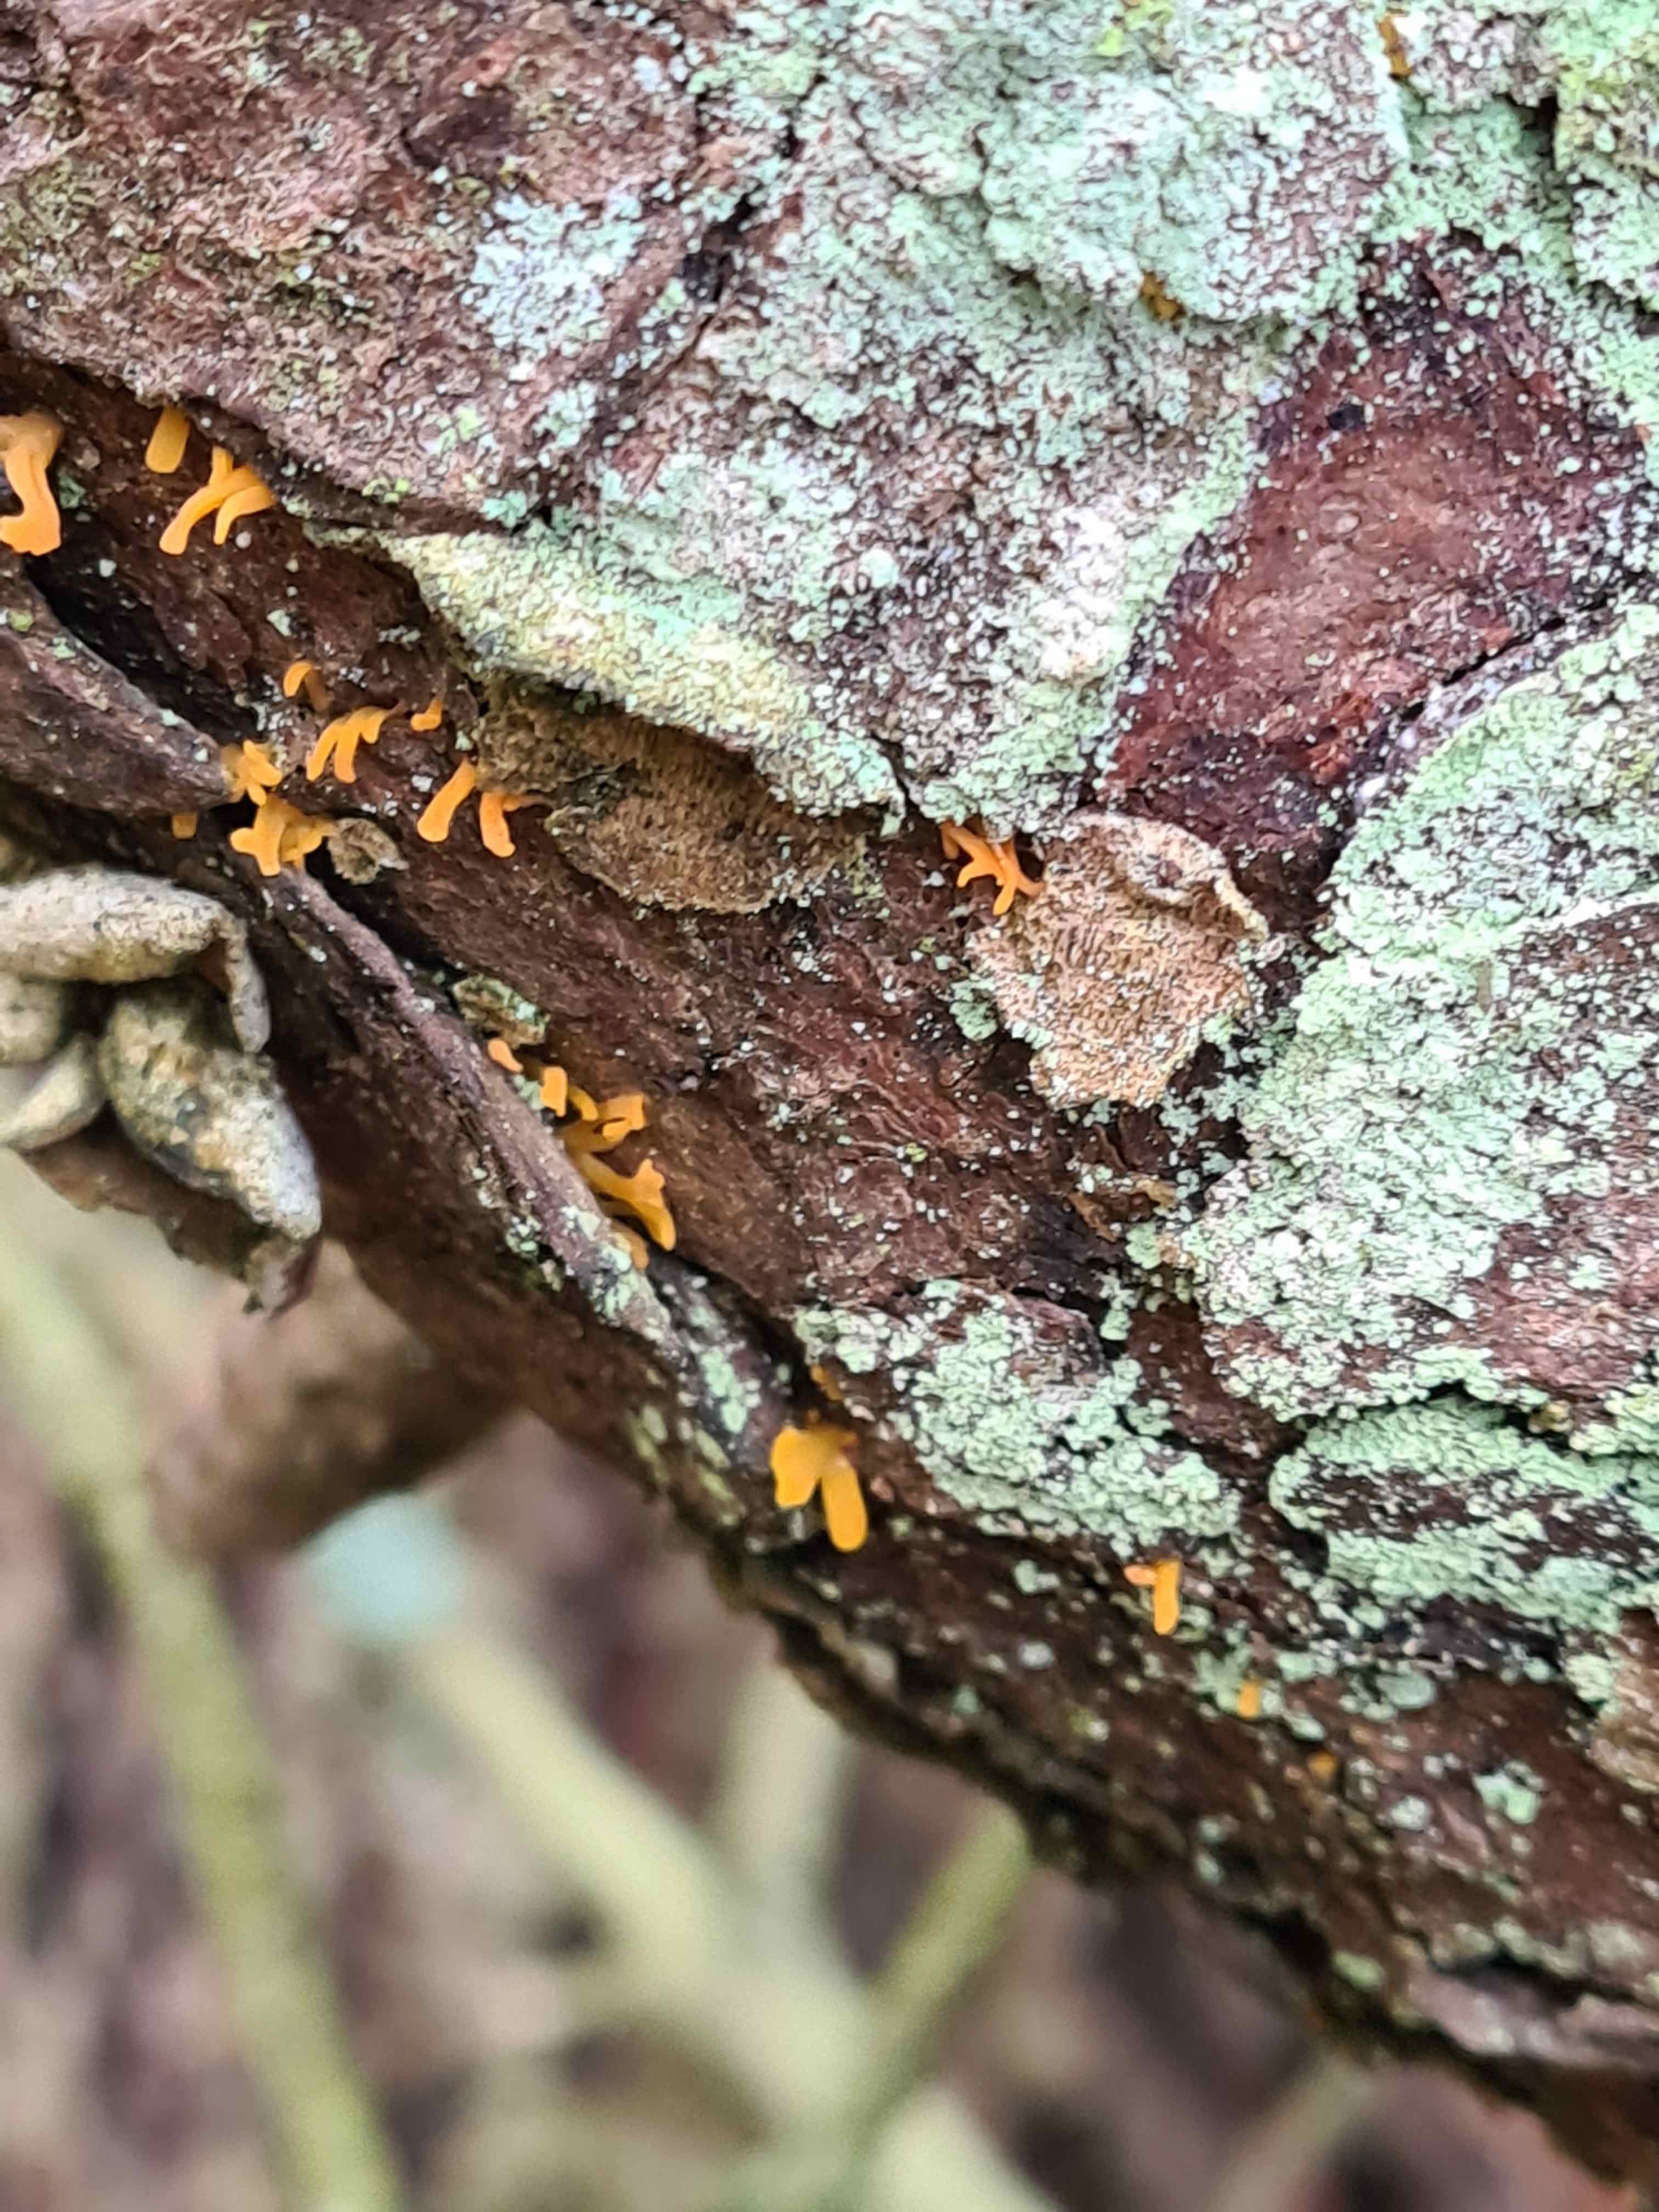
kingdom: Fungi
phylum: Basidiomycota
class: Dacrymycetes
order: Dacrymycetales
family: Dacrymycetaceae
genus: Calocera
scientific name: Calocera furcata
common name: fyrre-guldgaffel
